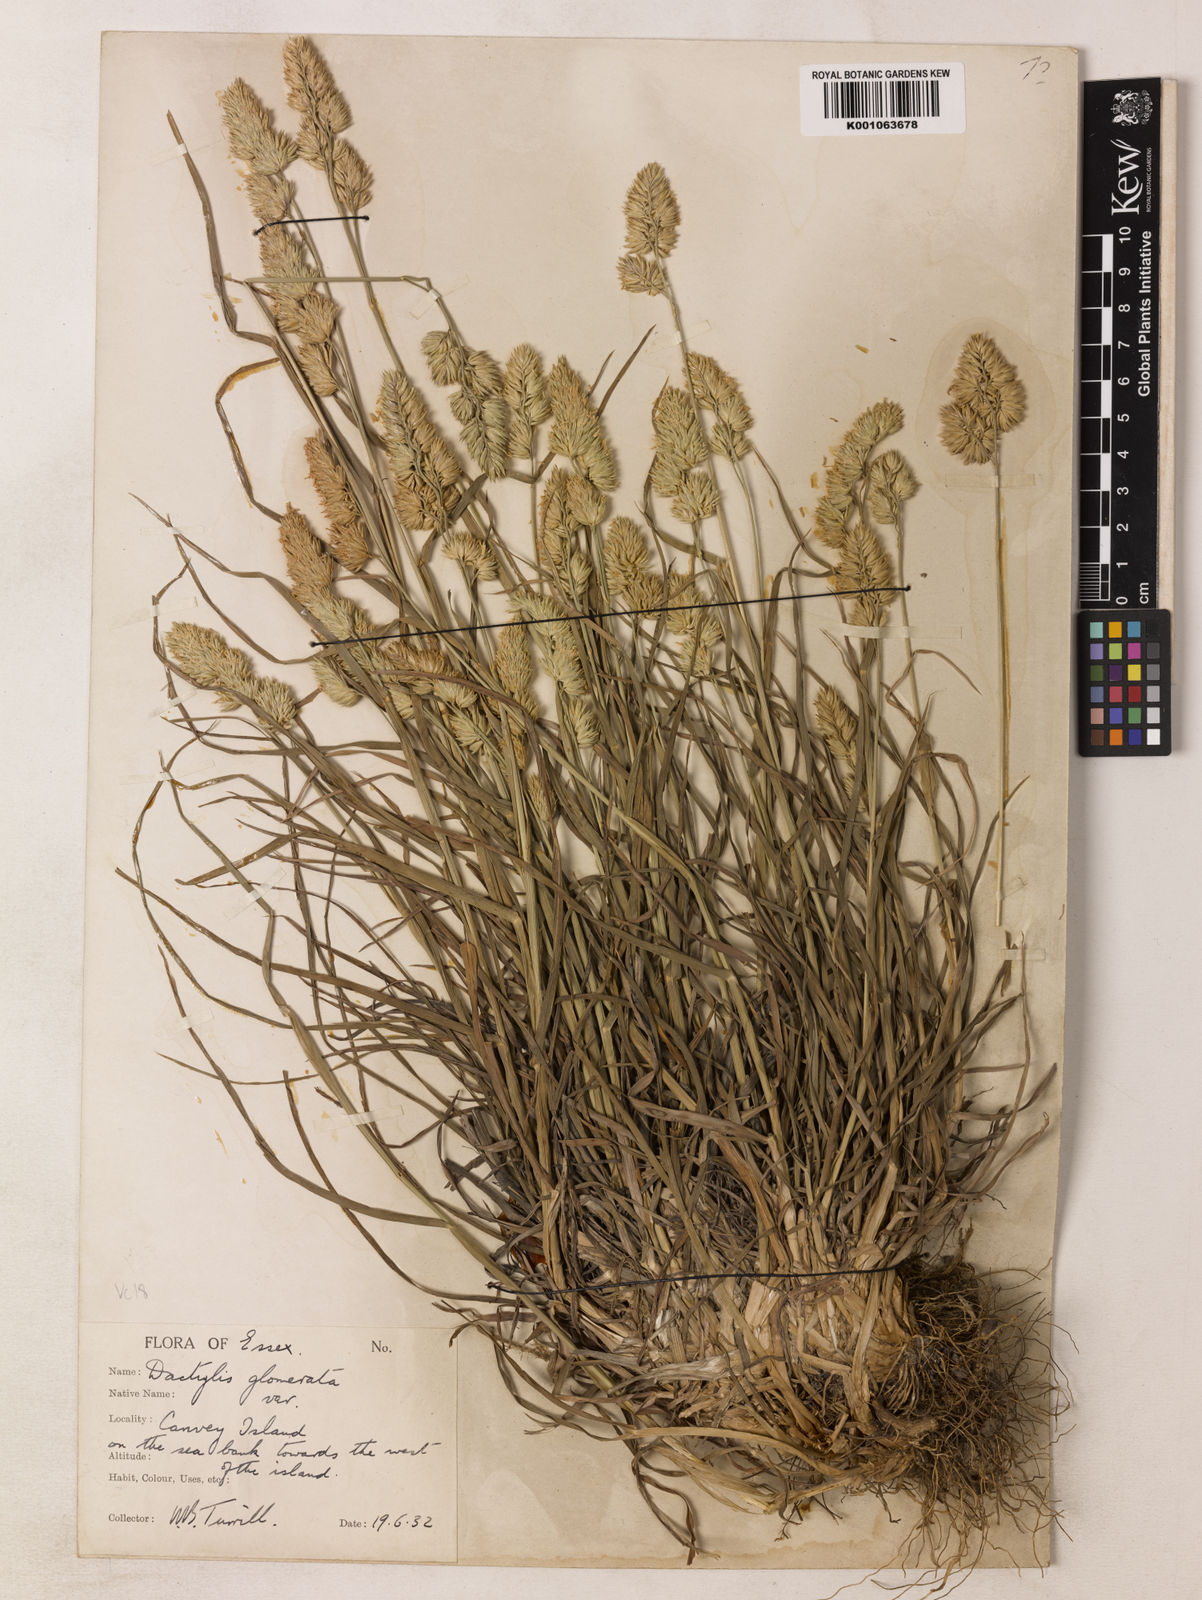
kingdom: Plantae
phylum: Tracheophyta
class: Liliopsida
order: Poales
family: Poaceae
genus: Dactylis
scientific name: Dactylis glomerata
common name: Orchardgrass
